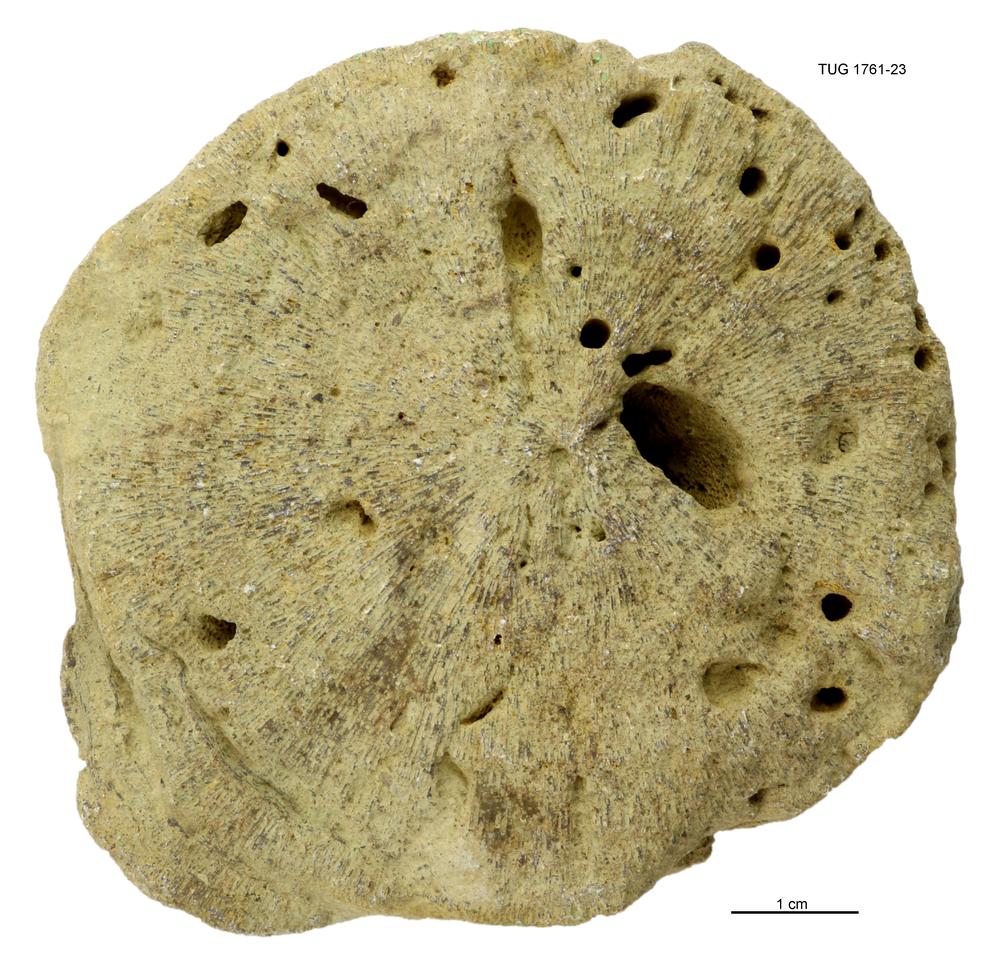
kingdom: Animalia
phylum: Bryozoa
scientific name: Bryozoa
